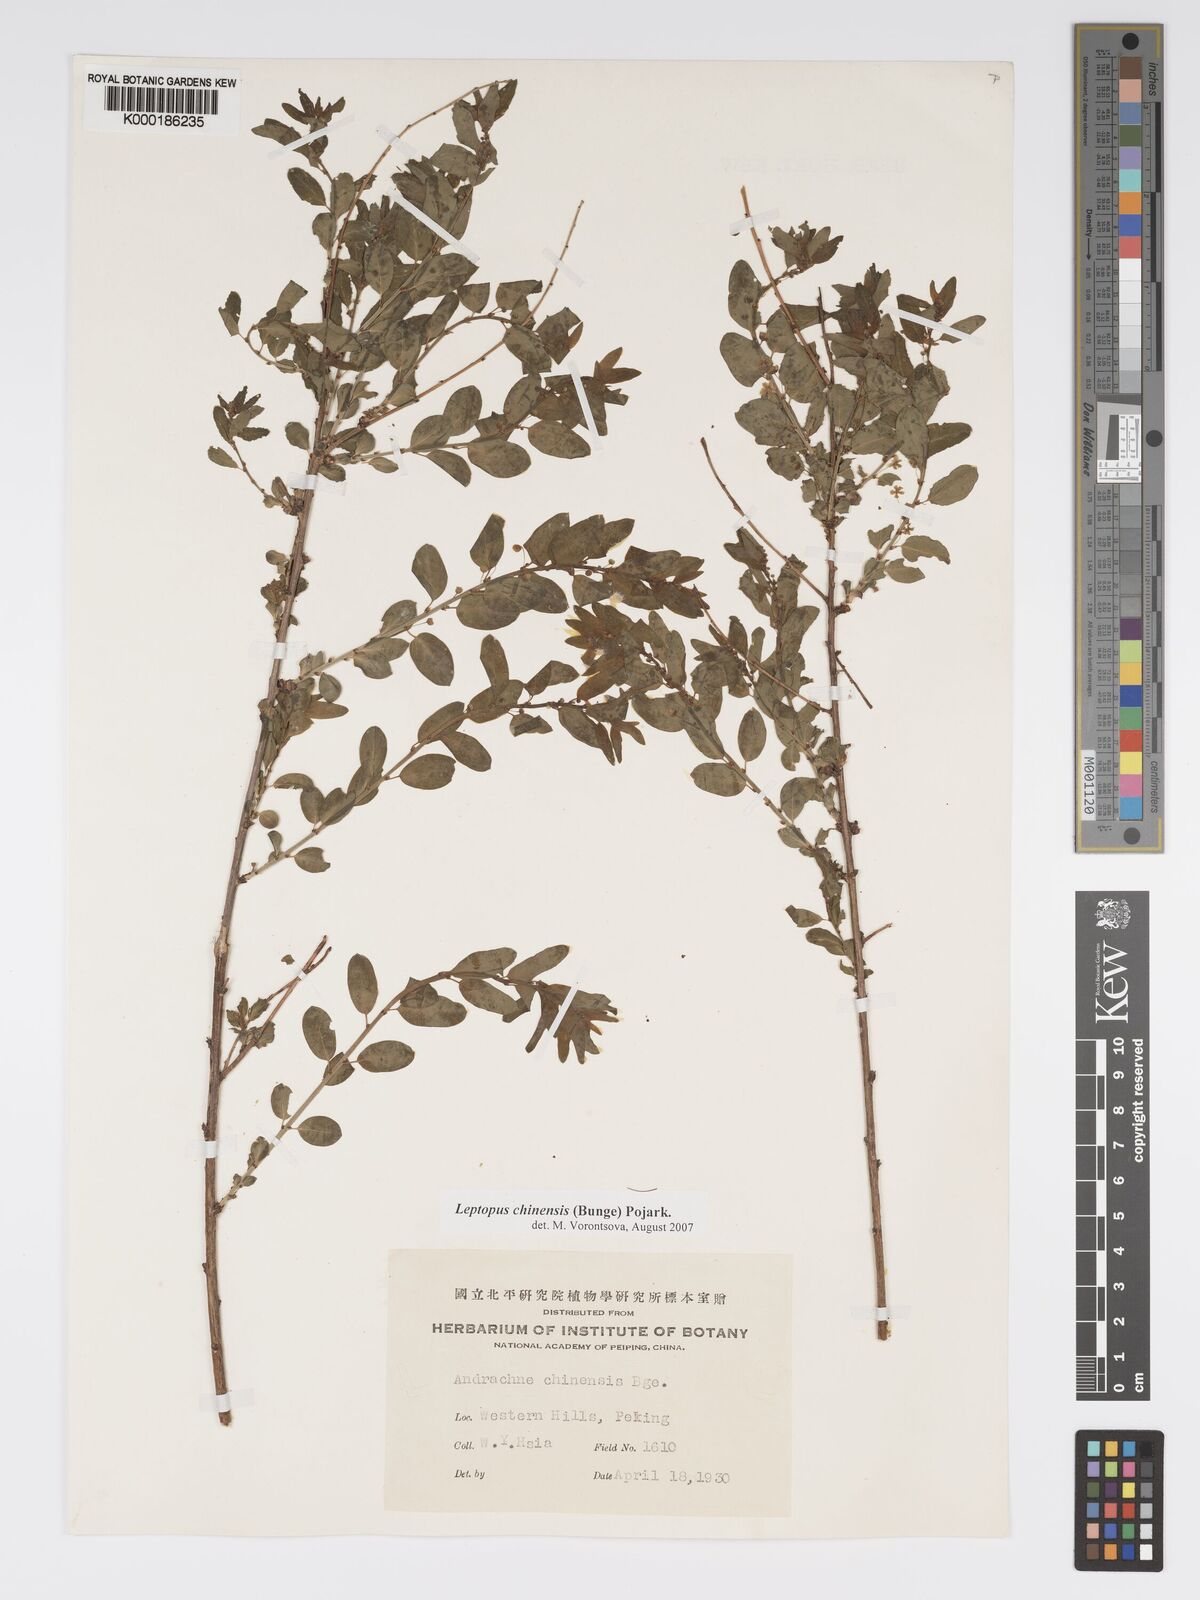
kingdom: Plantae
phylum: Tracheophyta
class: Magnoliopsida
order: Malpighiales
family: Phyllanthaceae
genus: Leptopus
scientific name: Leptopus chinensis
